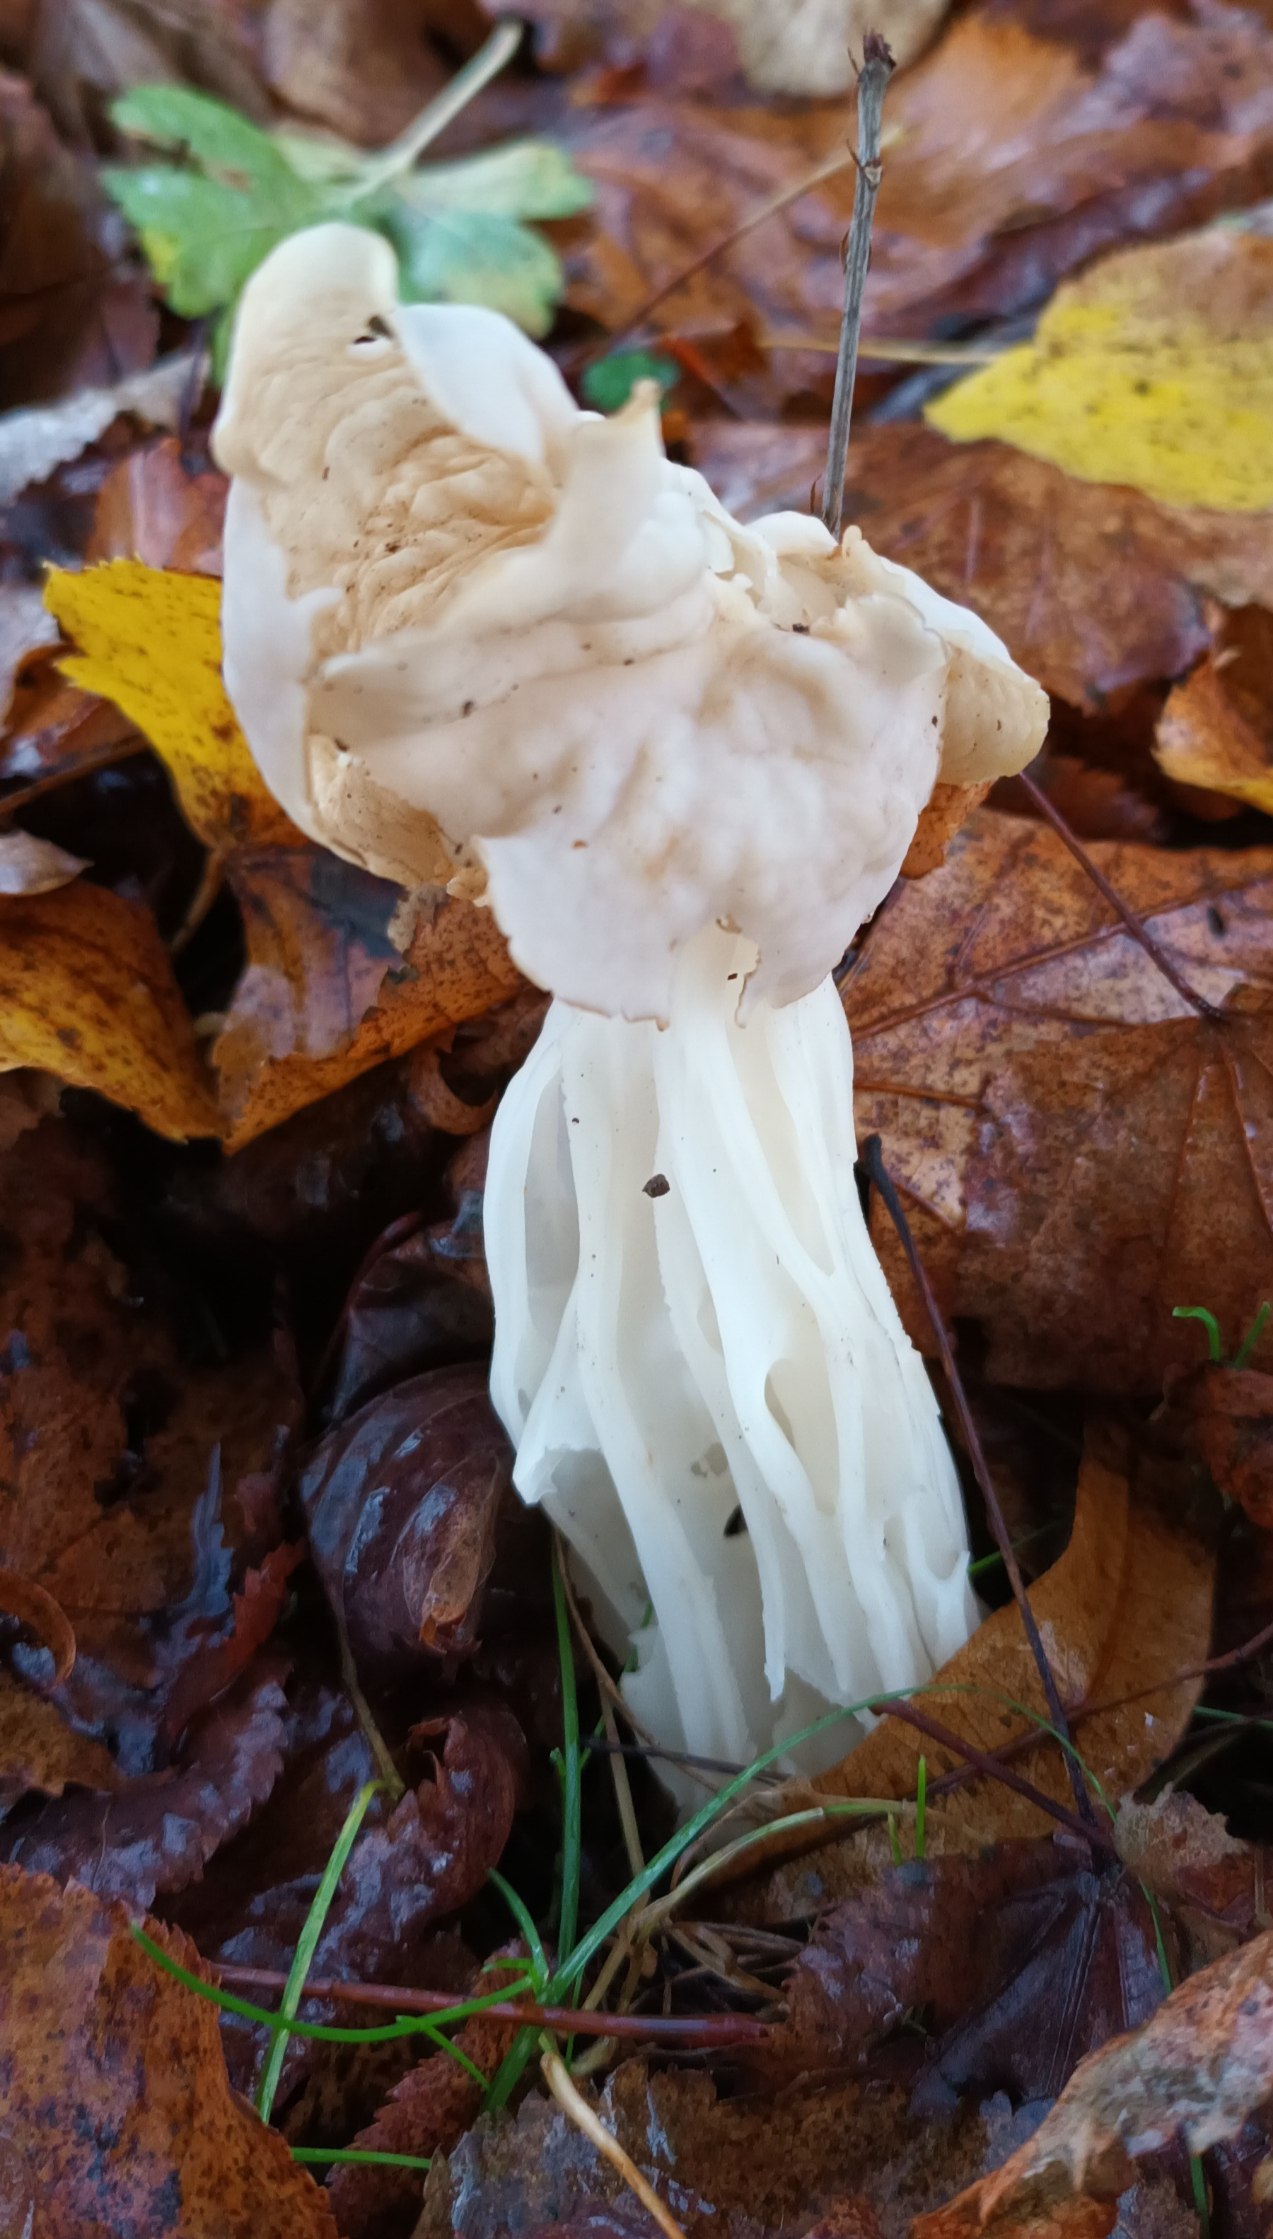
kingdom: Fungi
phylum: Ascomycota
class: Pezizomycetes
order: Pezizales
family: Helvellaceae
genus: Helvella
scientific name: Helvella crispa
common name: Kruset foldhat
